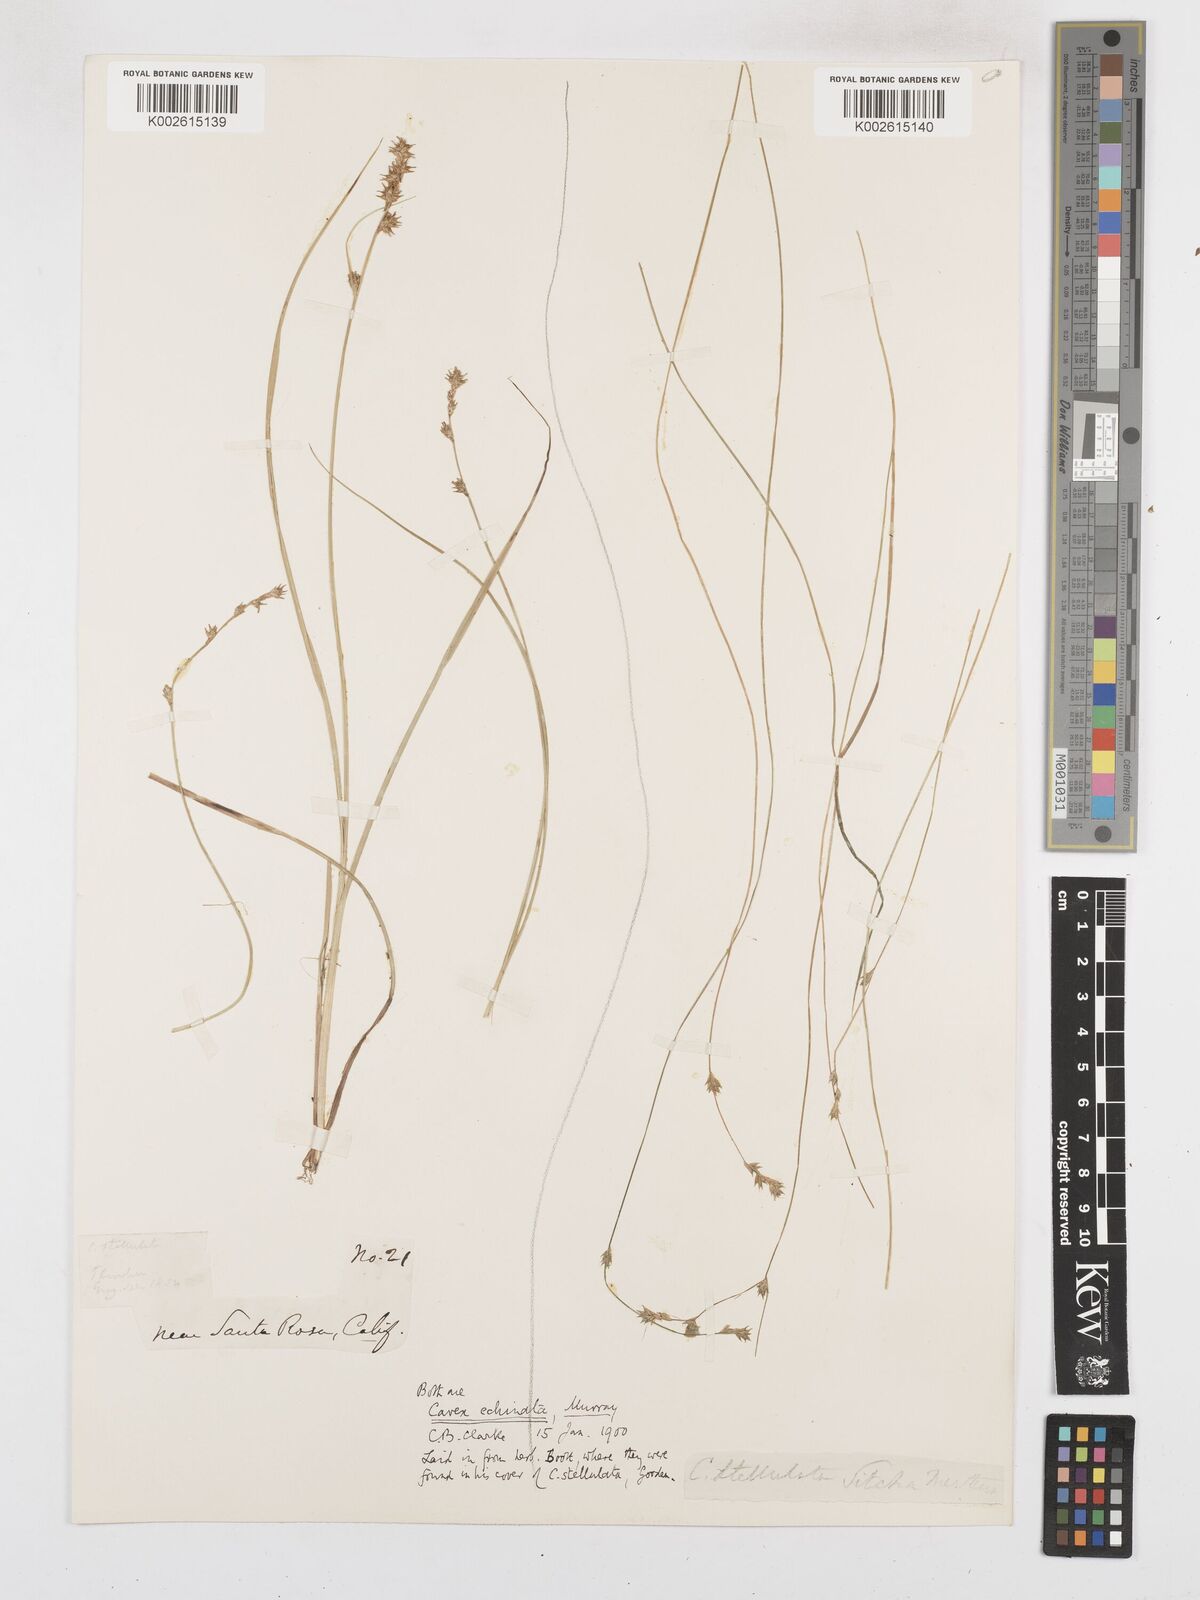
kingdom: Plantae
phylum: Tracheophyta
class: Liliopsida
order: Poales
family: Cyperaceae
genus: Carex
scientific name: Carex echinata
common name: Star sedge
